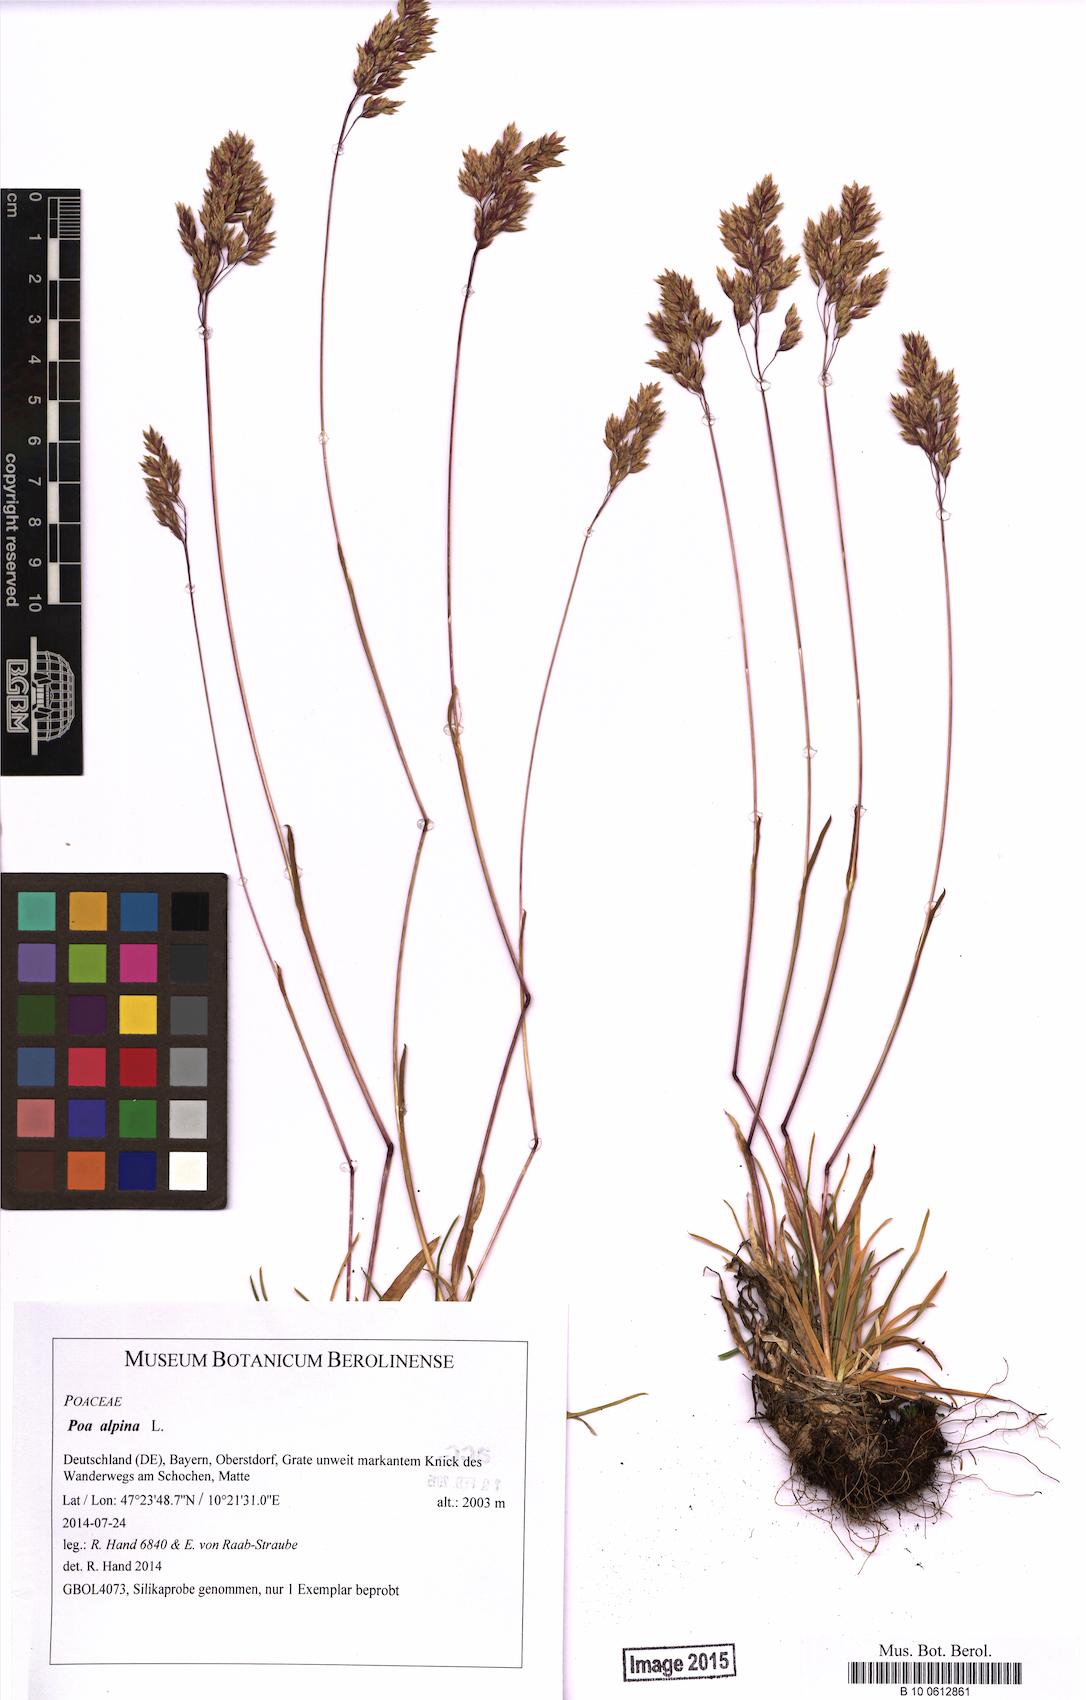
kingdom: Plantae
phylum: Tracheophyta
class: Liliopsida
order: Poales
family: Poaceae
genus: Poa
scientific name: Poa alpina
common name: Alpine bluegrass
